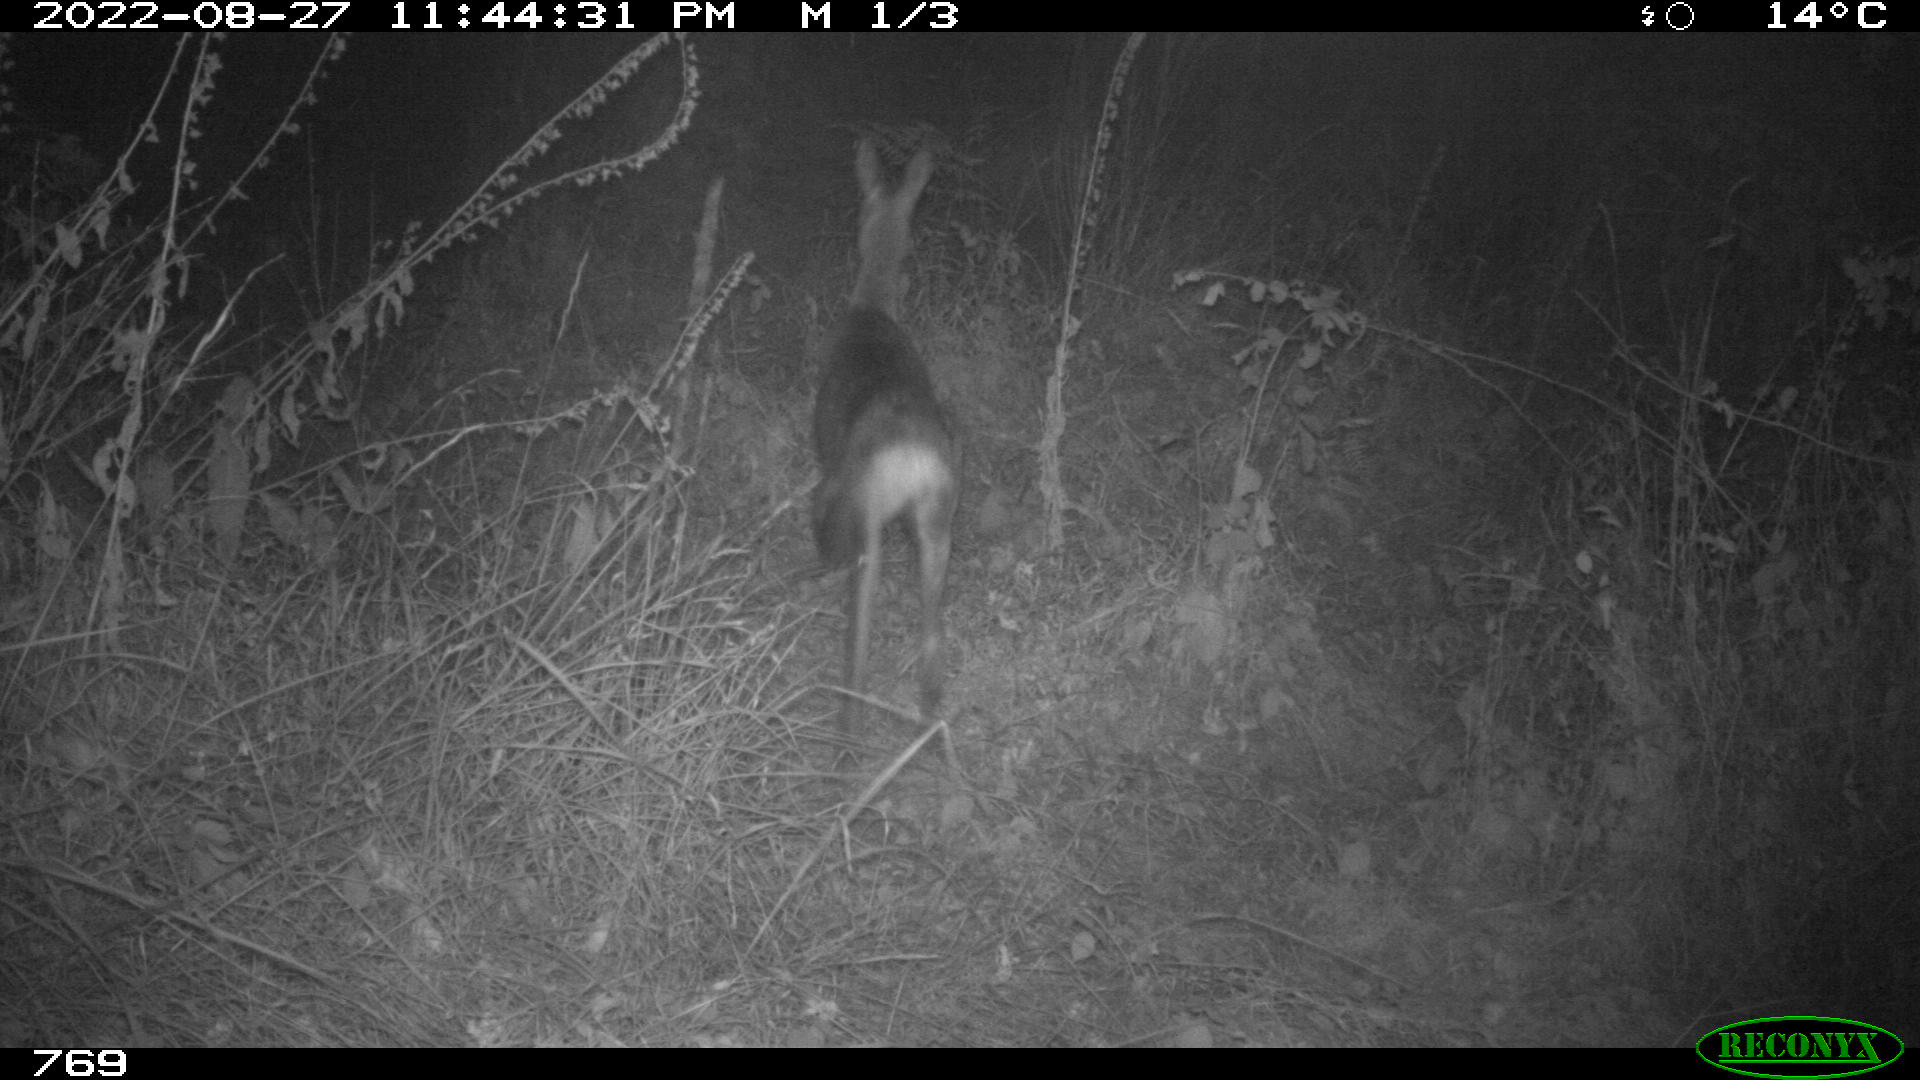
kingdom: Animalia
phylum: Chordata
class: Mammalia
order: Artiodactyla
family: Cervidae
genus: Capreolus
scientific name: Capreolus capreolus
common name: Western roe deer
